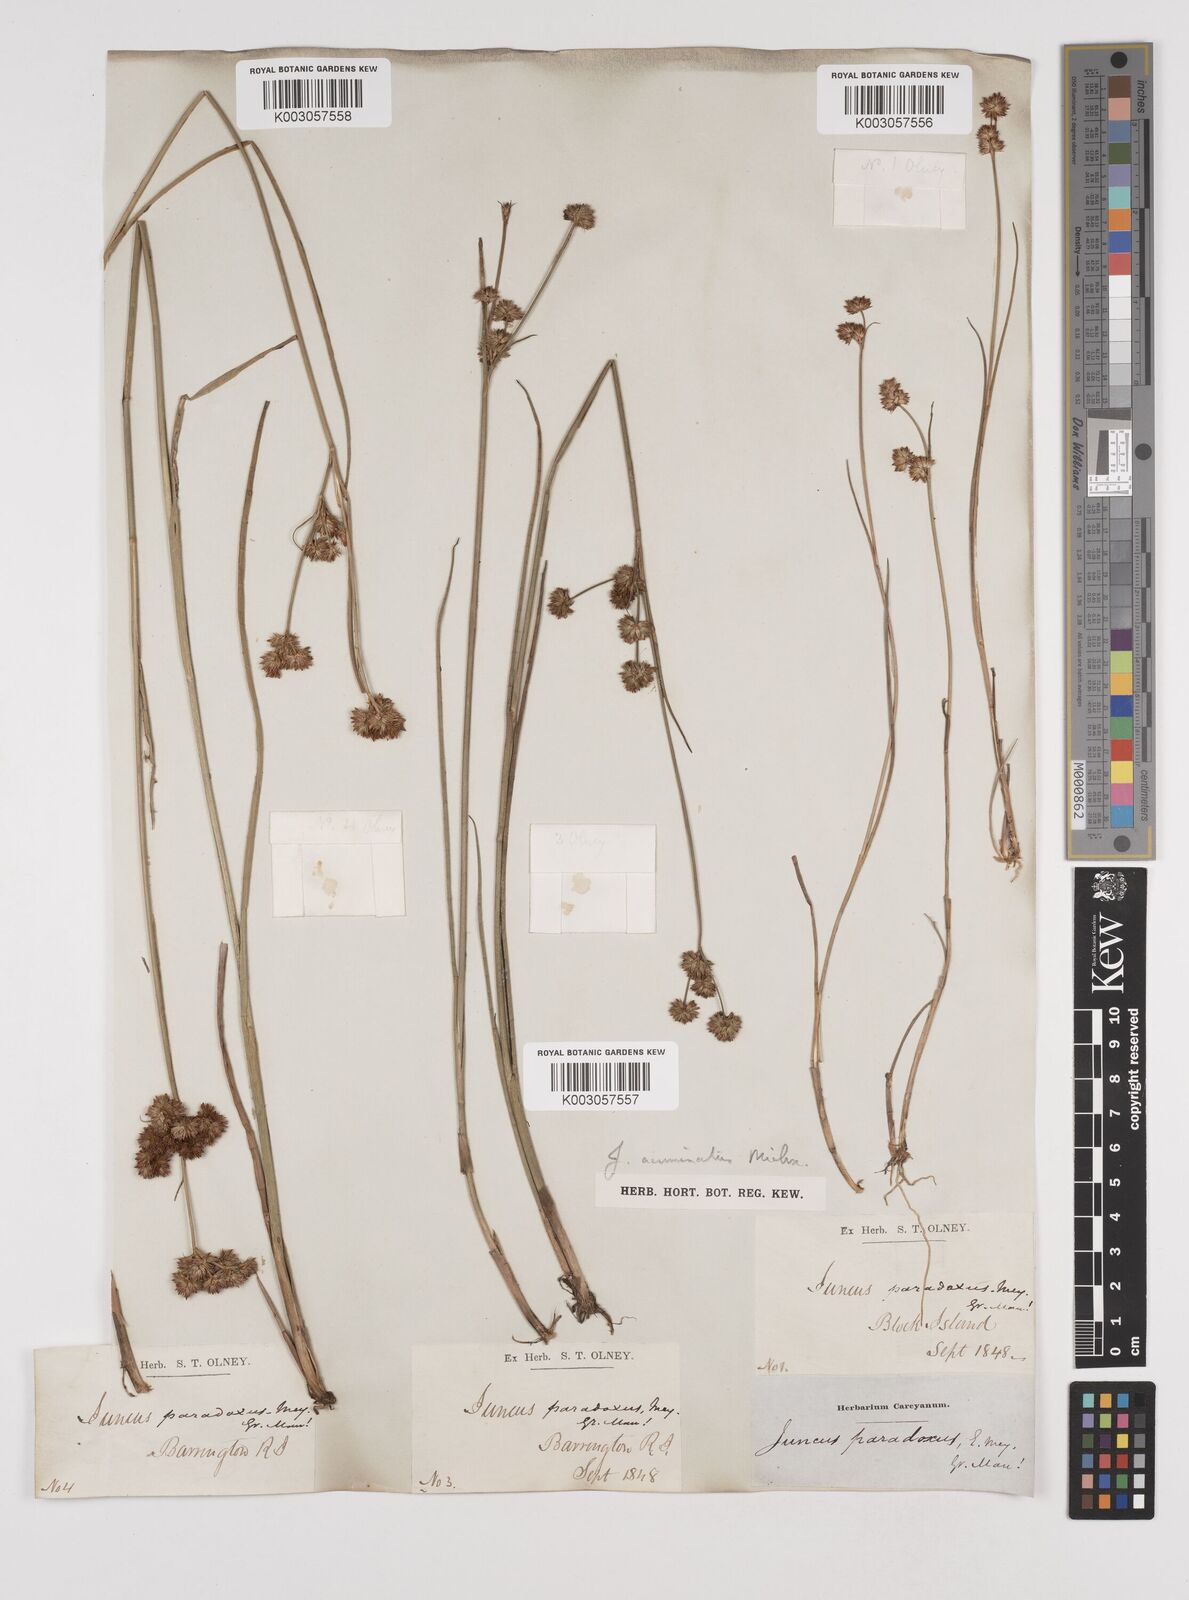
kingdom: Plantae
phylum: Tracheophyta
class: Liliopsida
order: Poales
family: Juncaceae
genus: Juncus
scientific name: Juncus acuminatus
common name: Knotty-leaved rush
